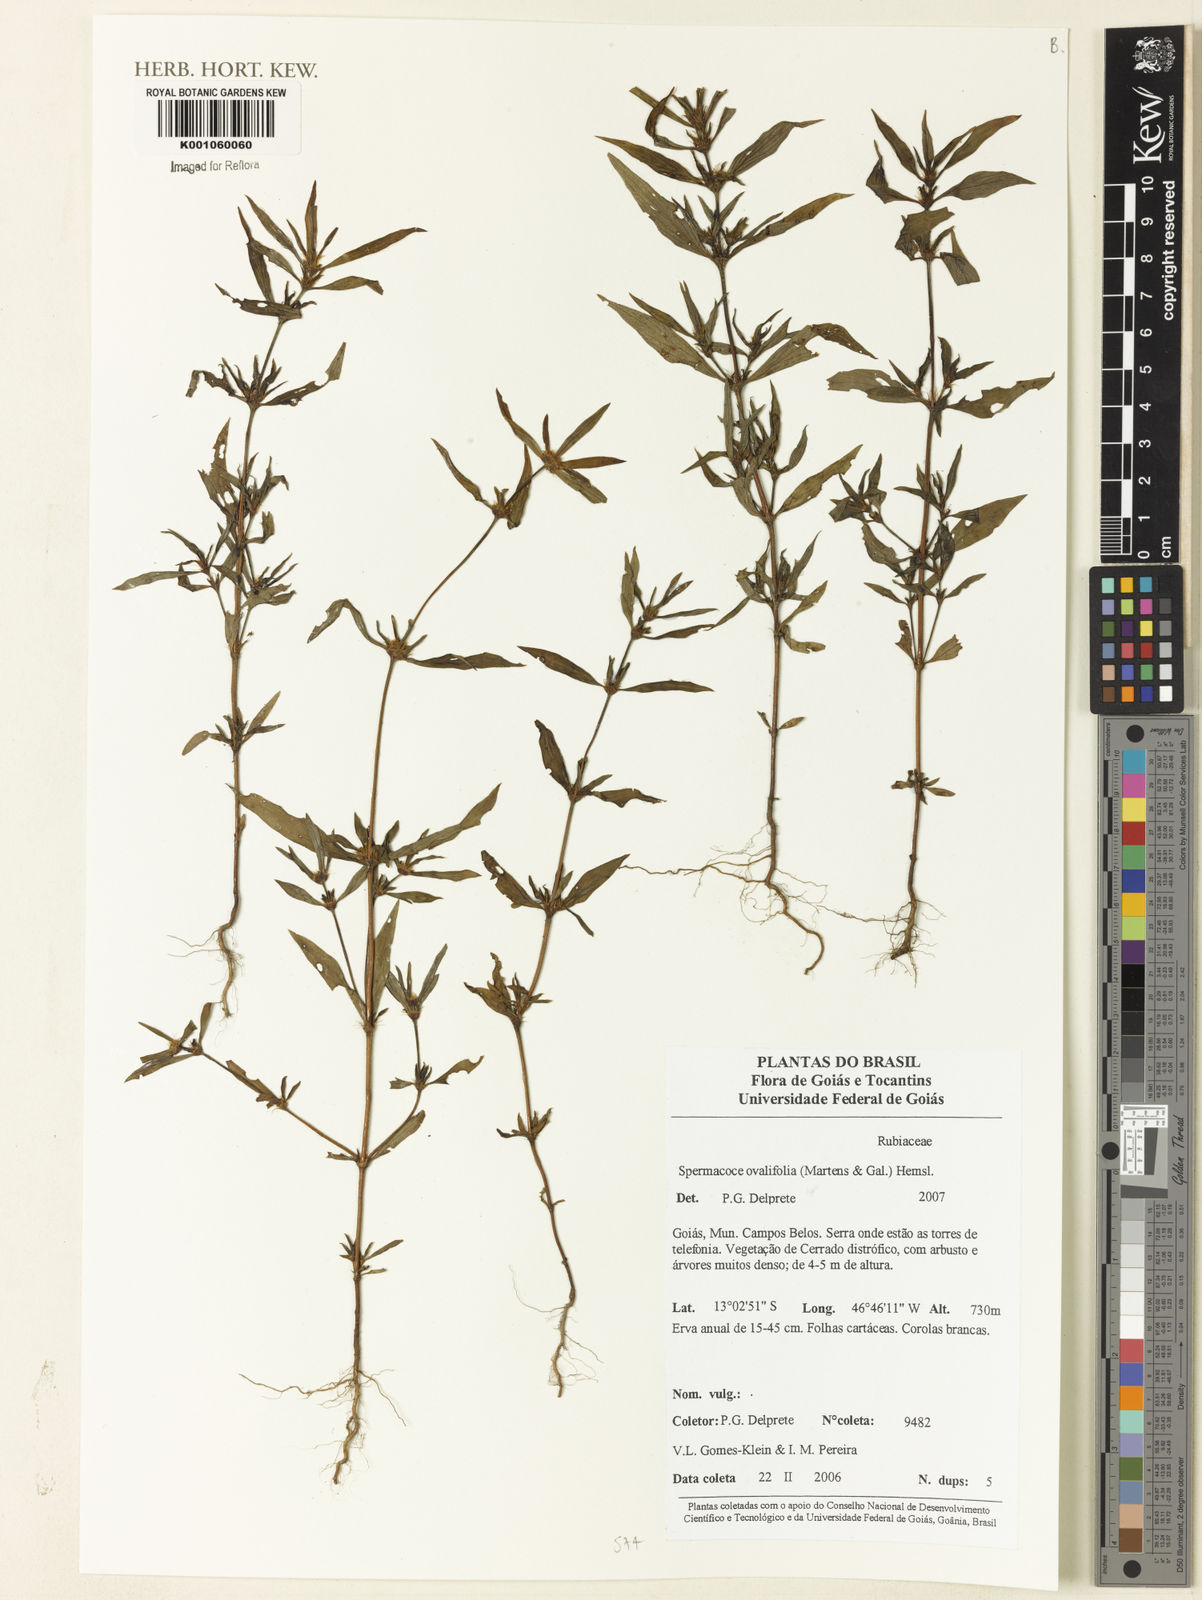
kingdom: Plantae
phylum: Tracheophyta
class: Magnoliopsida
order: Gentianales
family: Rubiaceae
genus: Spermacoce
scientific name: Spermacoce ovalifolia
